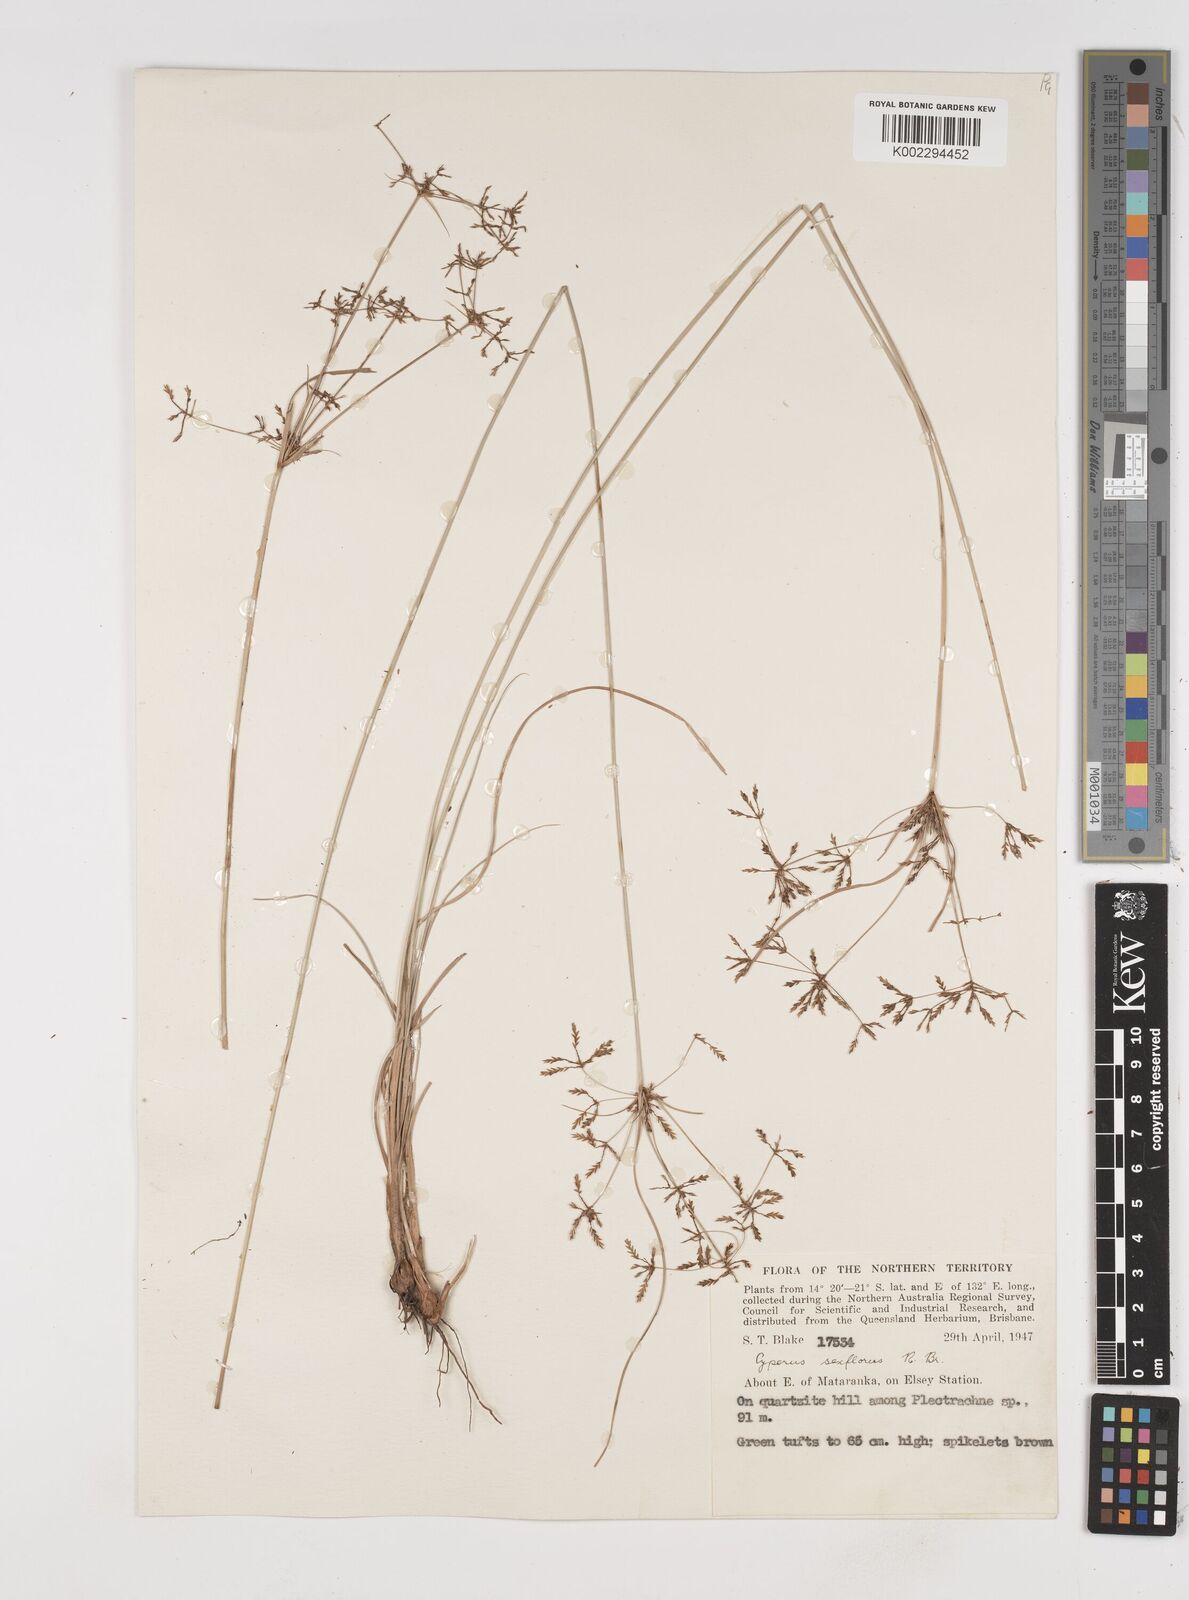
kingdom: Plantae
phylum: Tracheophyta
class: Liliopsida
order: Poales
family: Cyperaceae
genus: Cyperus
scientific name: Cyperus sexflorus
